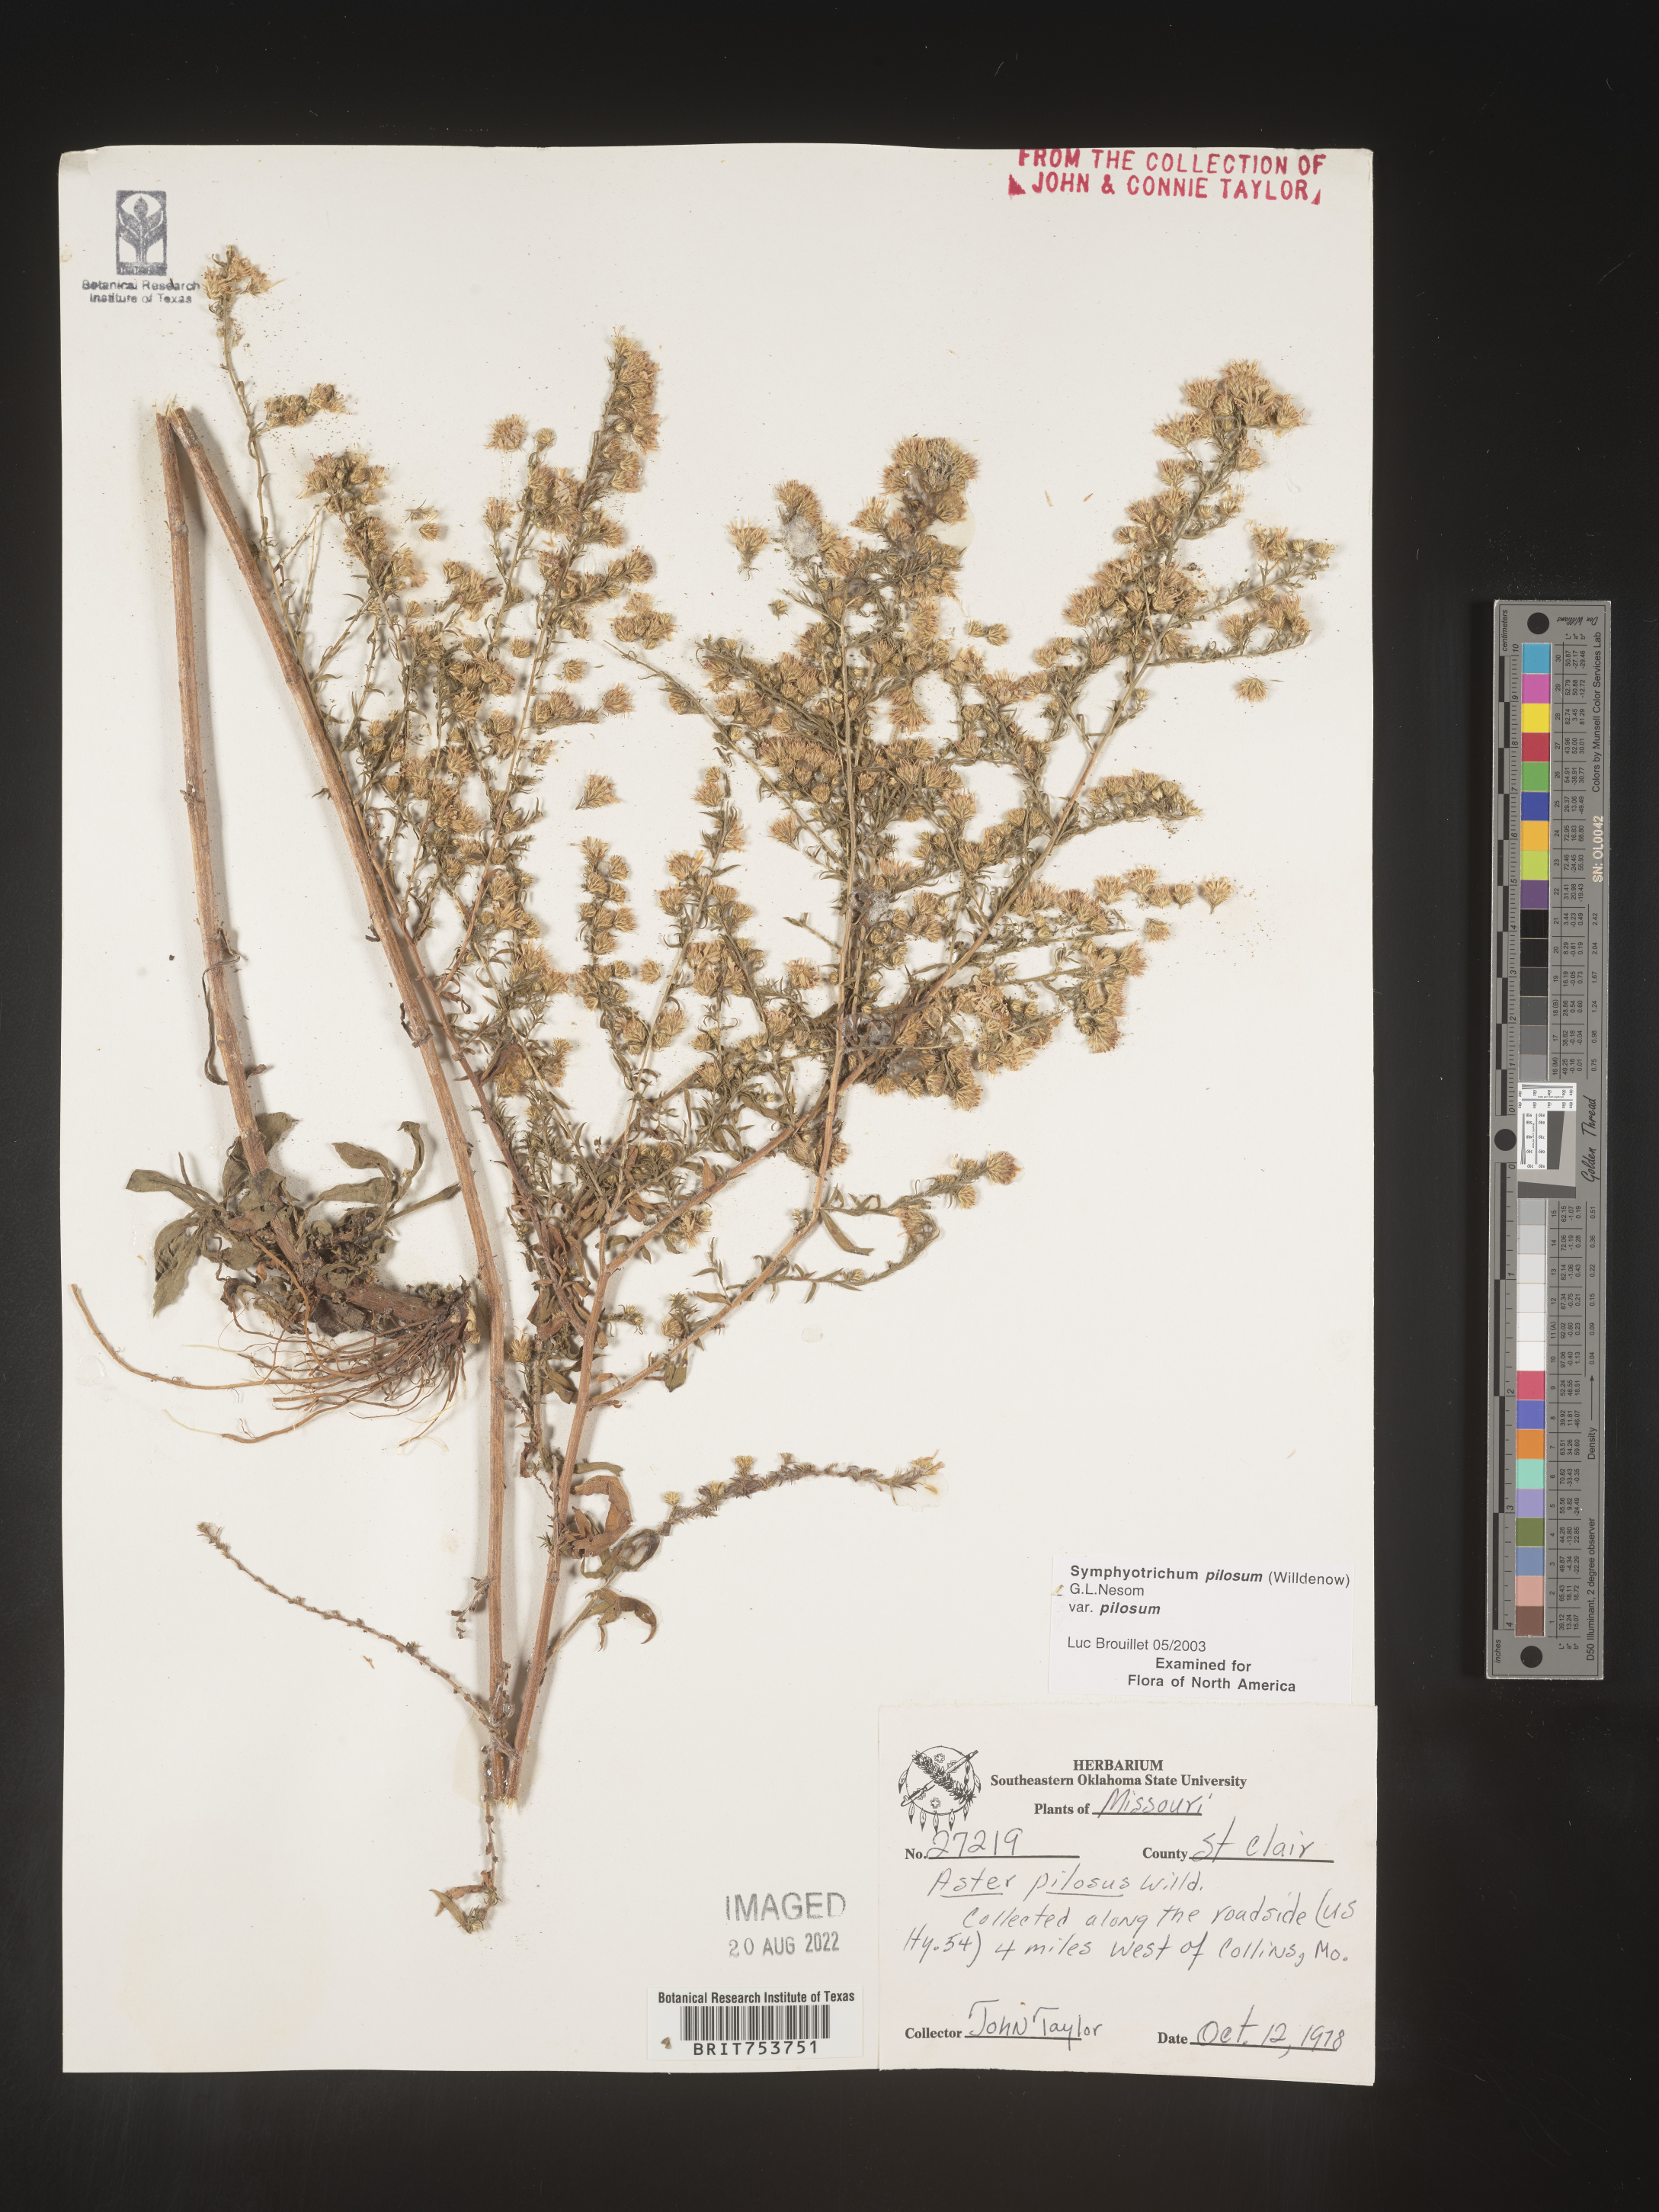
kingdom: Plantae
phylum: Tracheophyta
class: Magnoliopsida
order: Asterales
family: Asteraceae
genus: Symphyotrichum
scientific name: Symphyotrichum pilosum
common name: Awl aster
